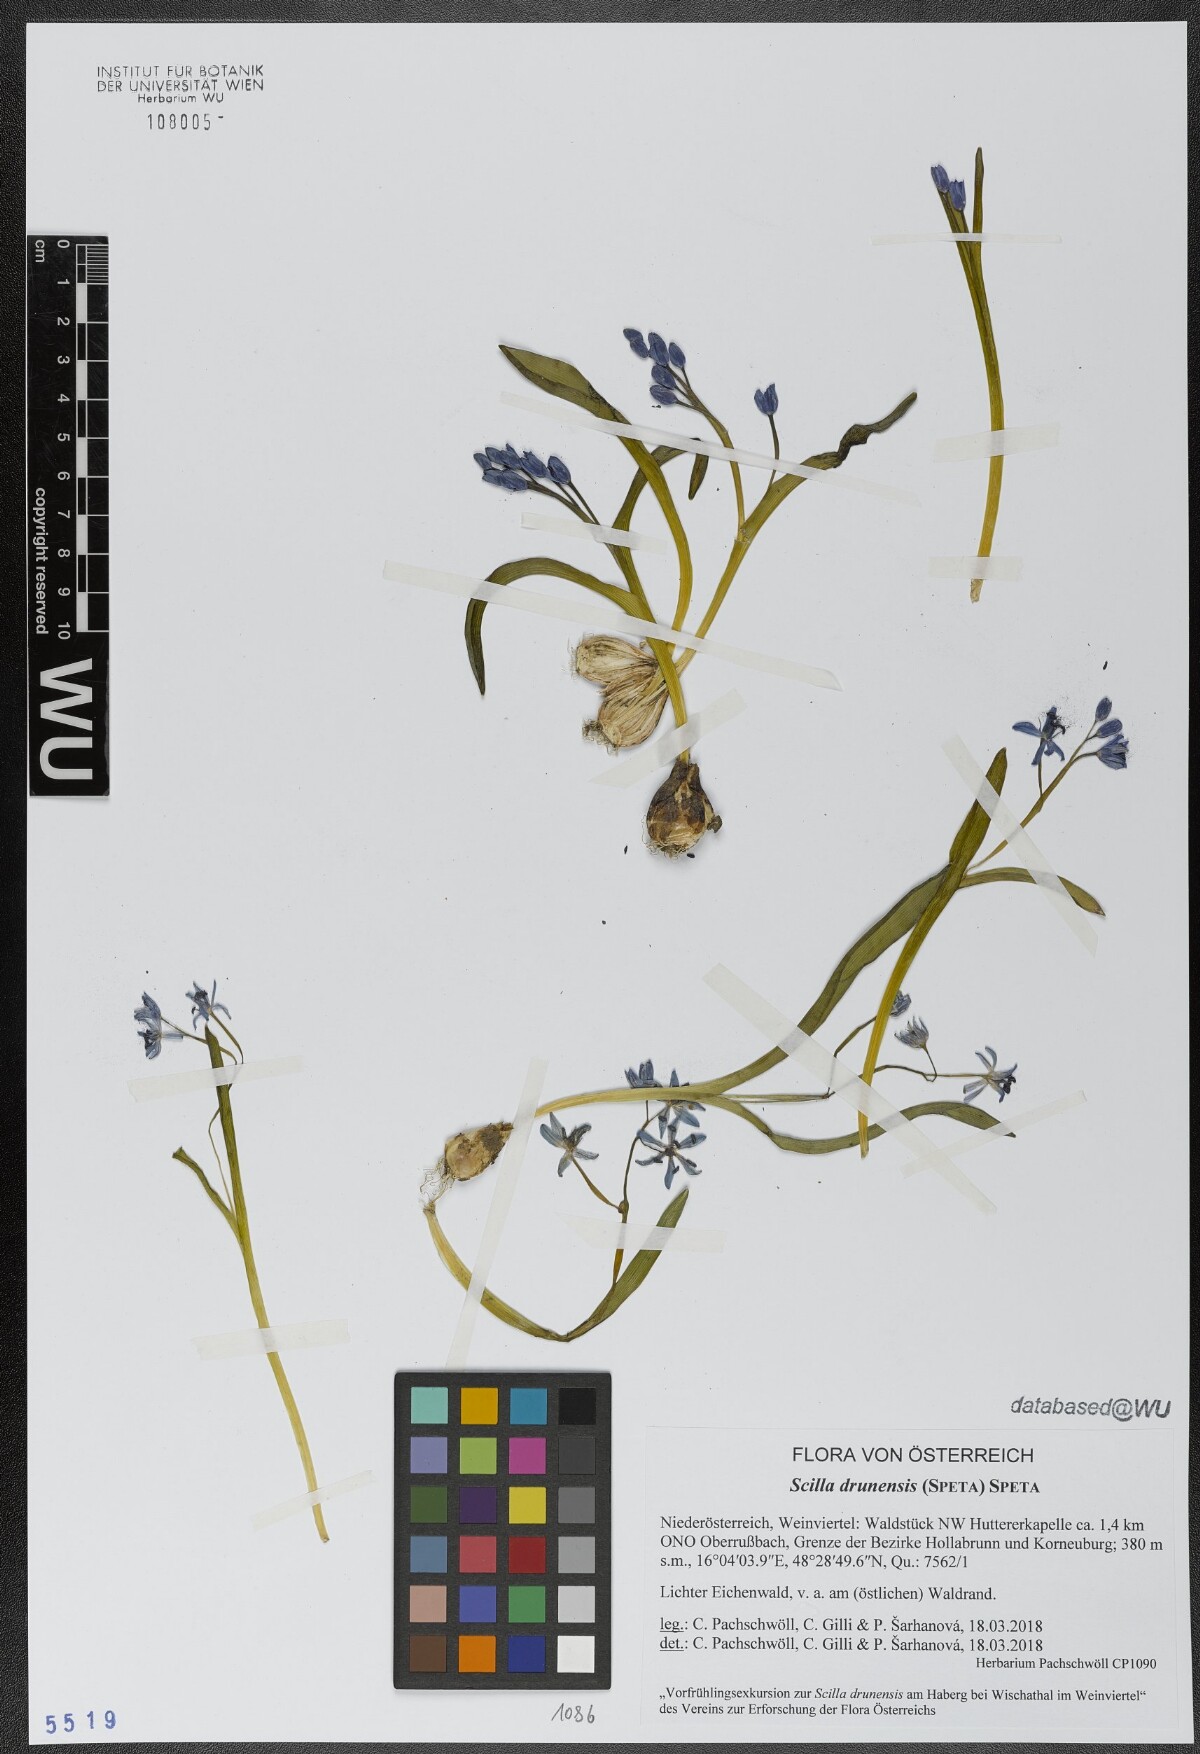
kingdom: Plantae
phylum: Tracheophyta
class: Liliopsida
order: Asparagales
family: Asparagaceae
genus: Scilla
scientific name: Scilla bifolia
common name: Alpine squill
